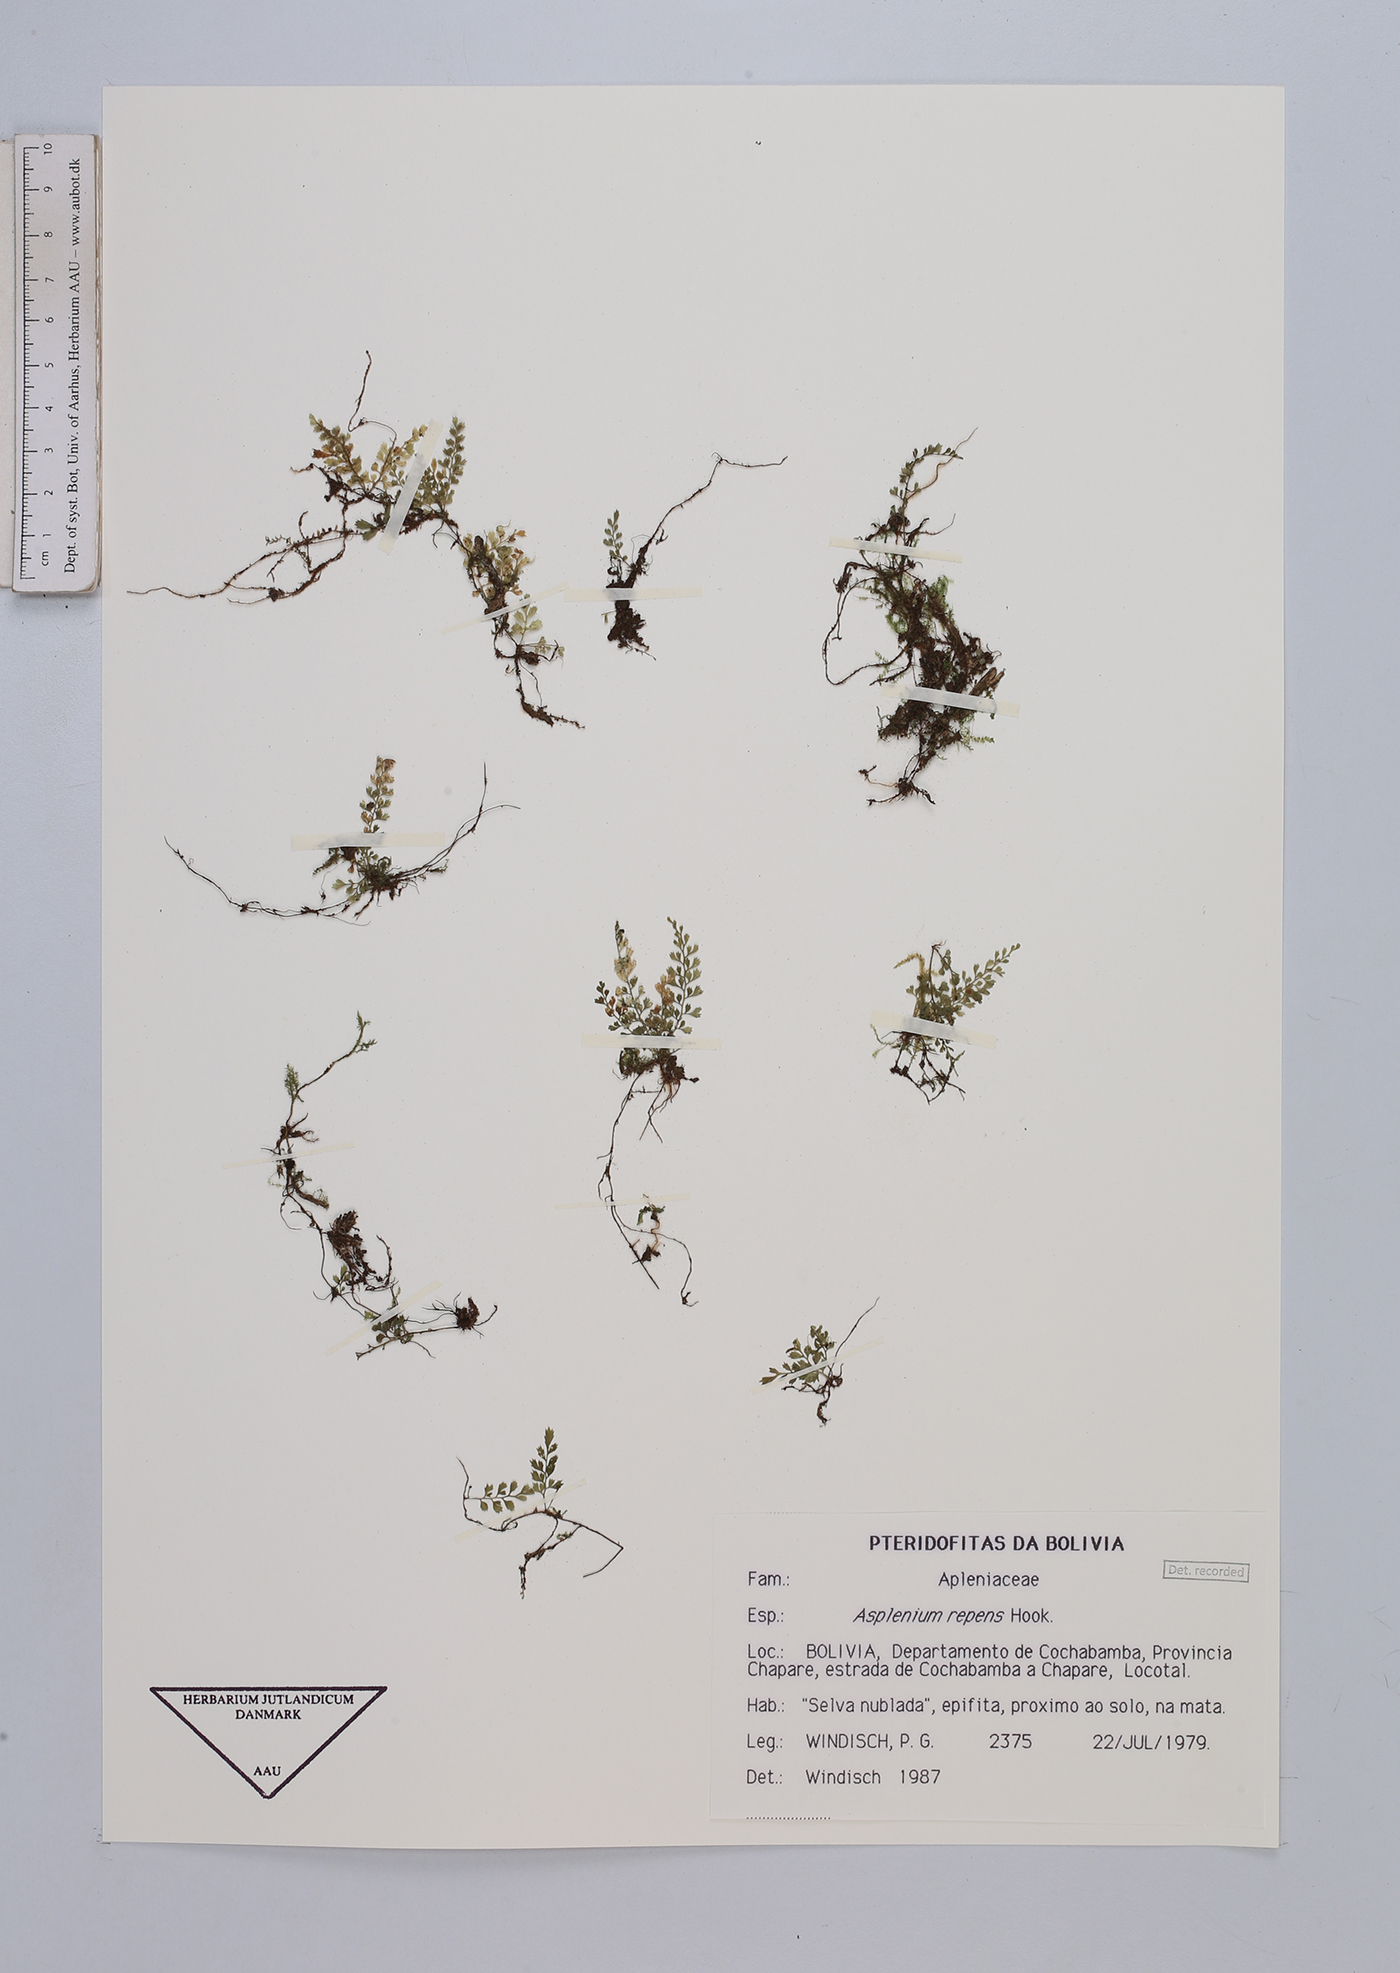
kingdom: Plantae
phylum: Tracheophyta
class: Polypodiopsida
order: Polypodiales
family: Aspleniaceae
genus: Asplenium
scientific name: Asplenium repens
